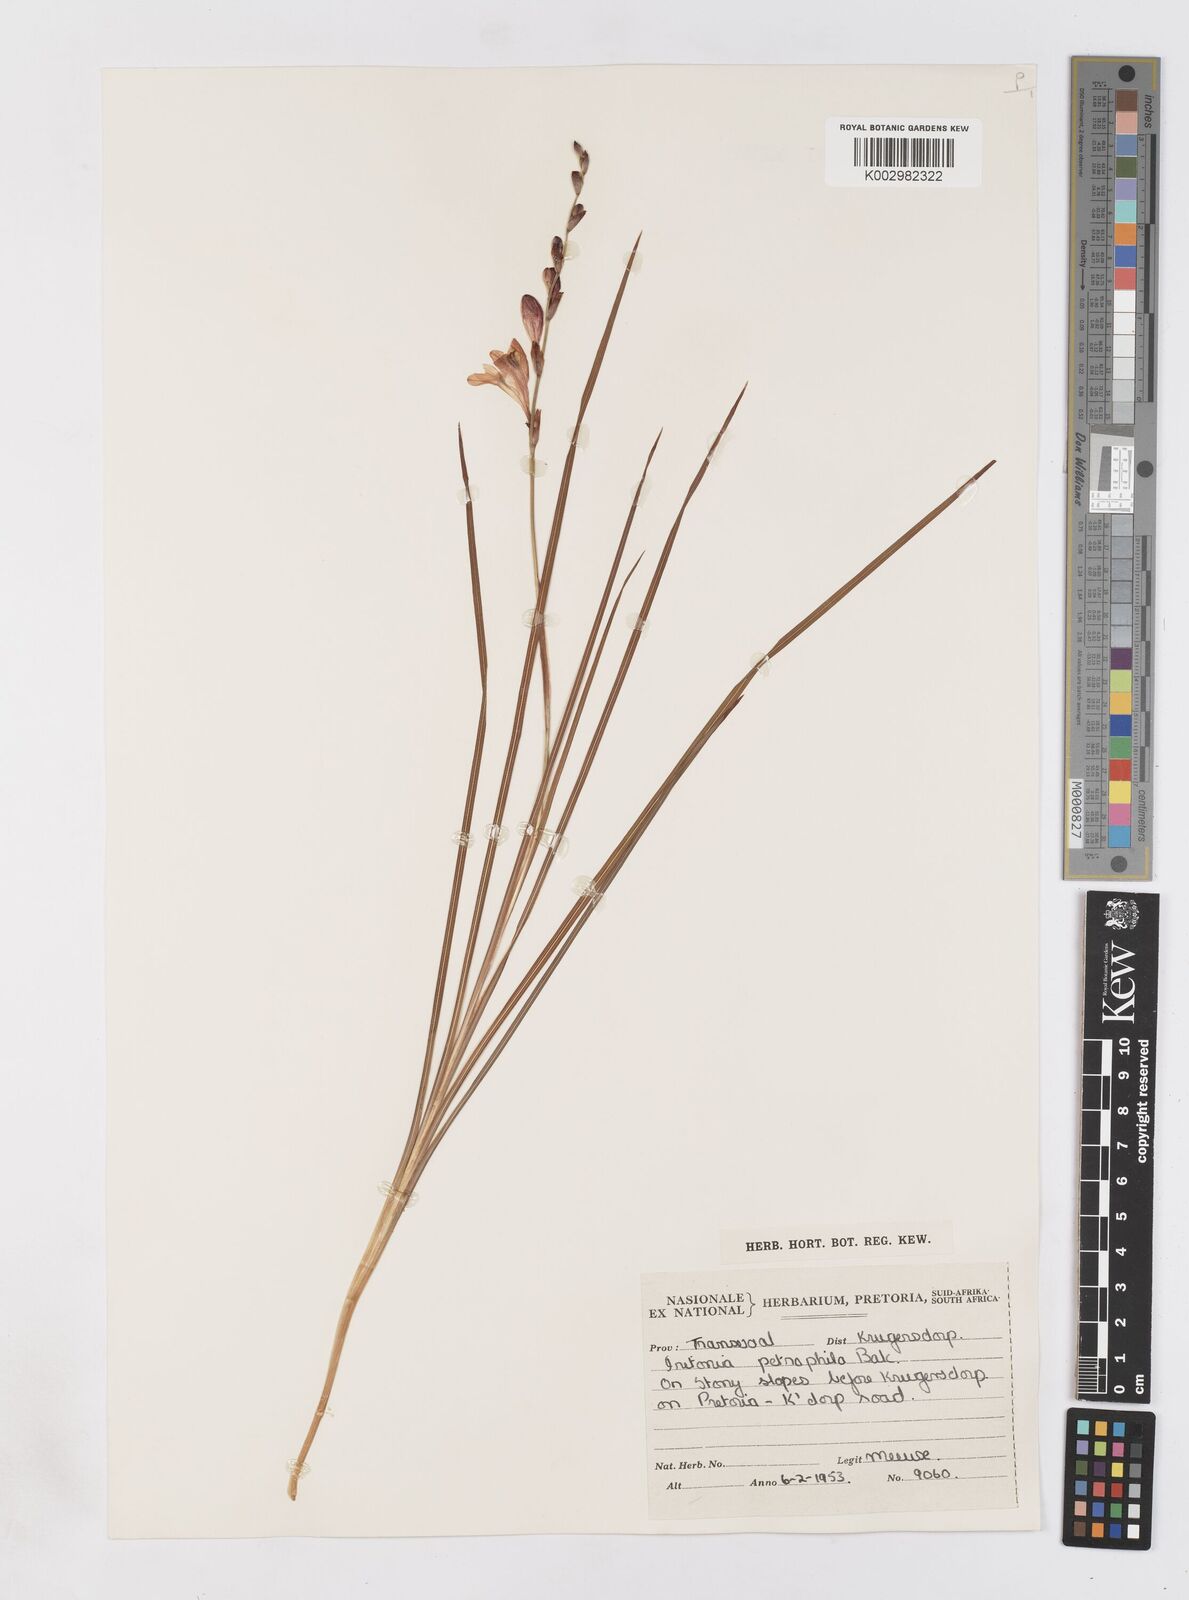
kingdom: Plantae
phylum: Tracheophyta
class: Liliopsida
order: Asparagales
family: Iridaceae
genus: Tritonia
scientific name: Tritonia nelsonii
